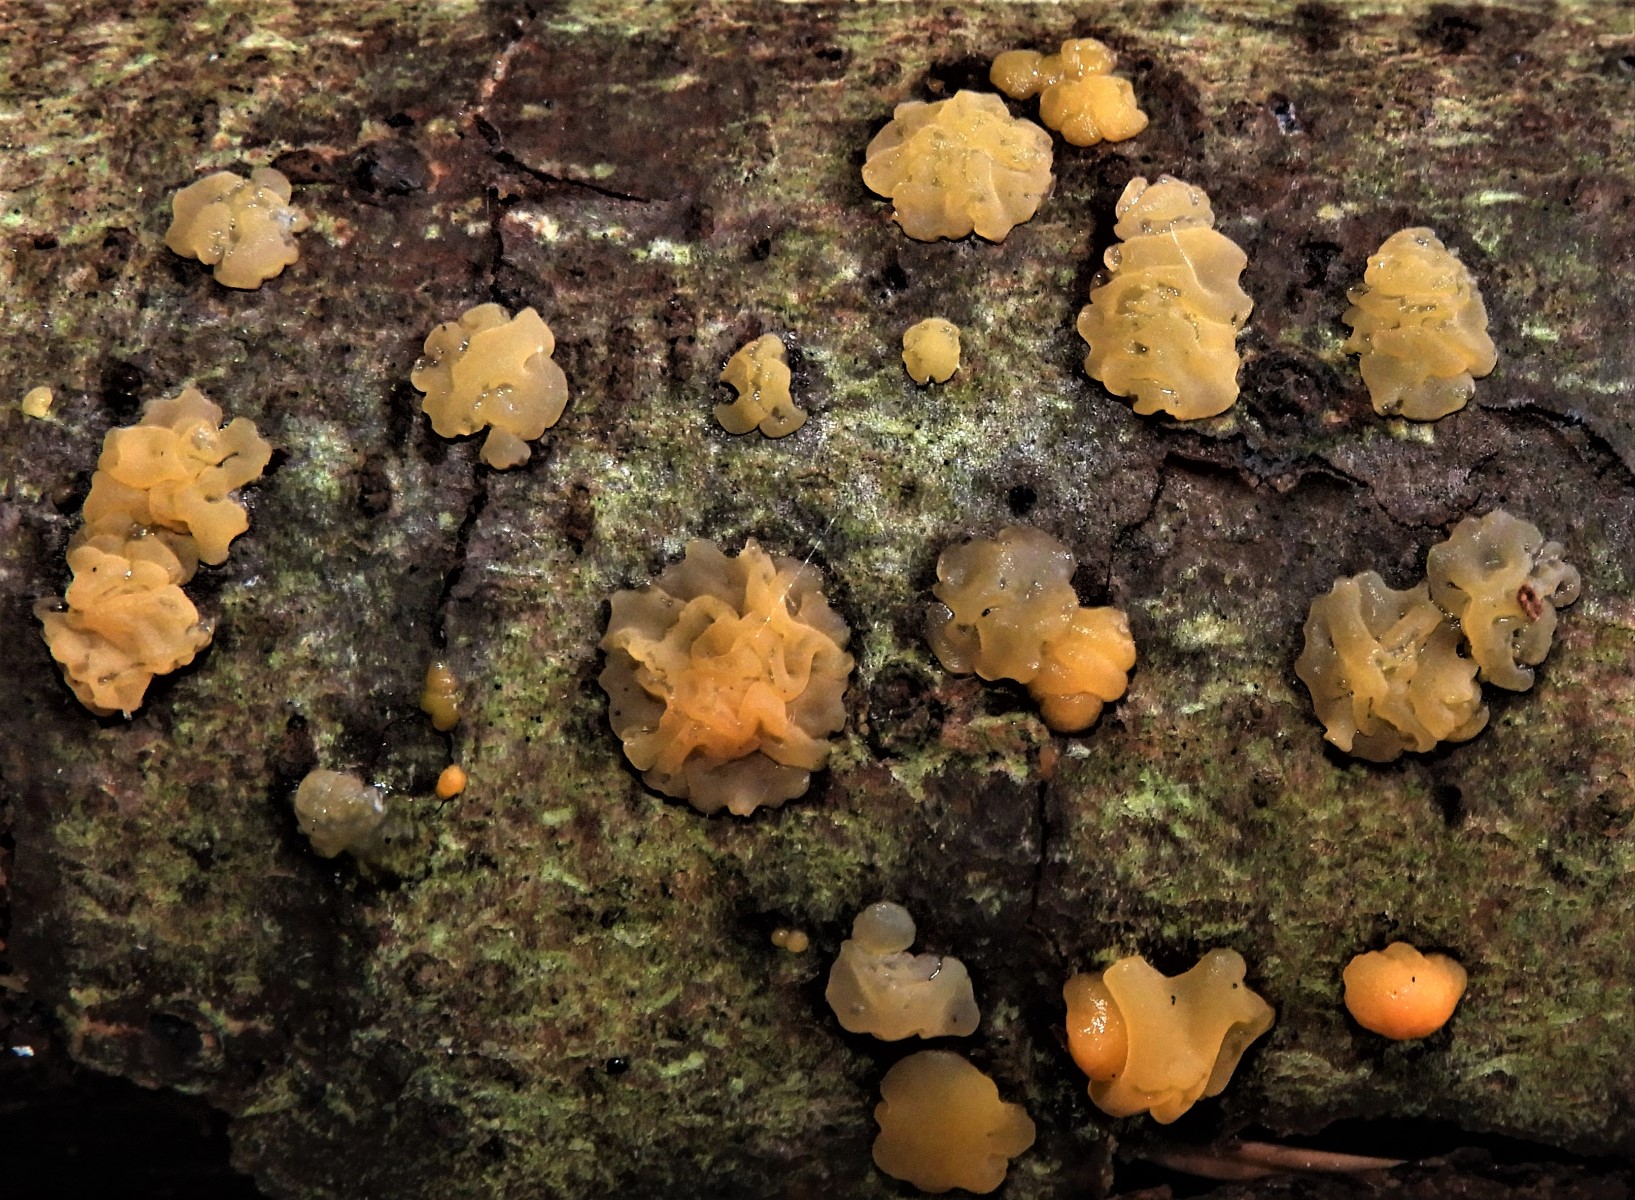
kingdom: Fungi
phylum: Basidiomycota
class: Dacrymycetes
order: Dacrymycetales
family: Dacrymycetaceae
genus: Dacrymyces
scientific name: Dacrymyces lacrymalis
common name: rynket tåresvamp
